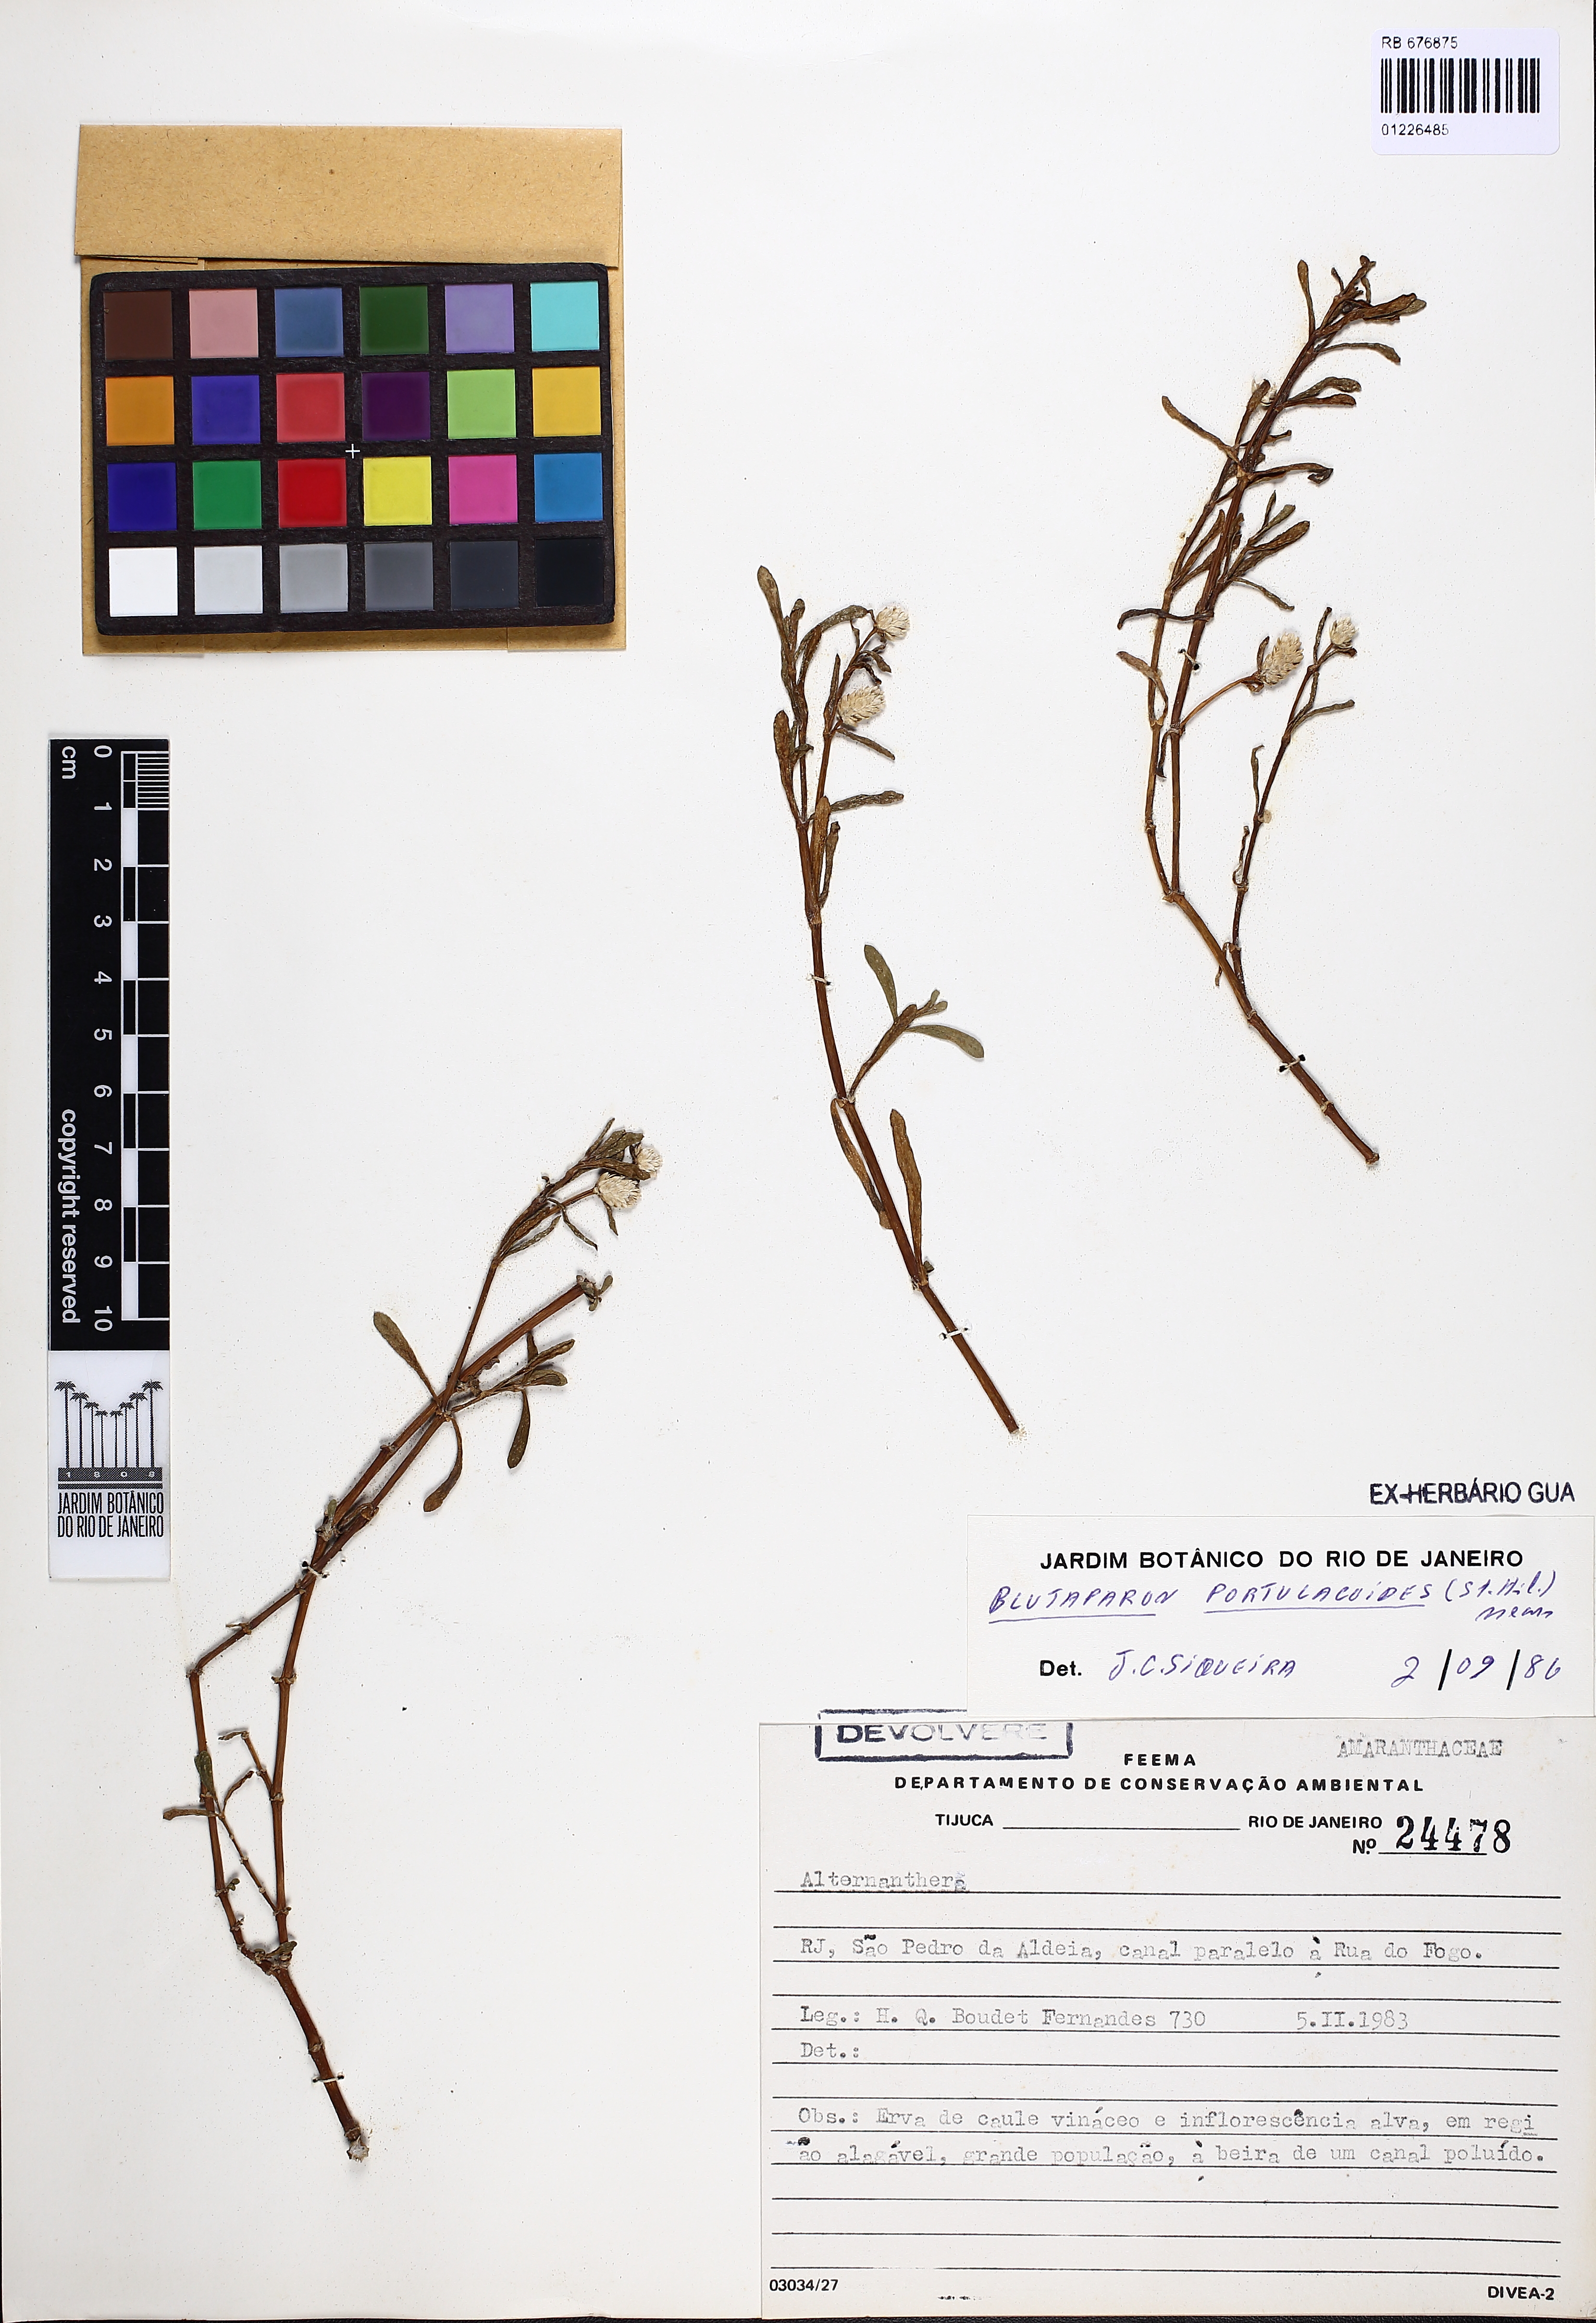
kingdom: Plantae
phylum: Tracheophyta
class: Magnoliopsida
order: Caryophyllales
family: Amaranthaceae
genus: Gomphrena
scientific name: Gomphrena portulacoides
